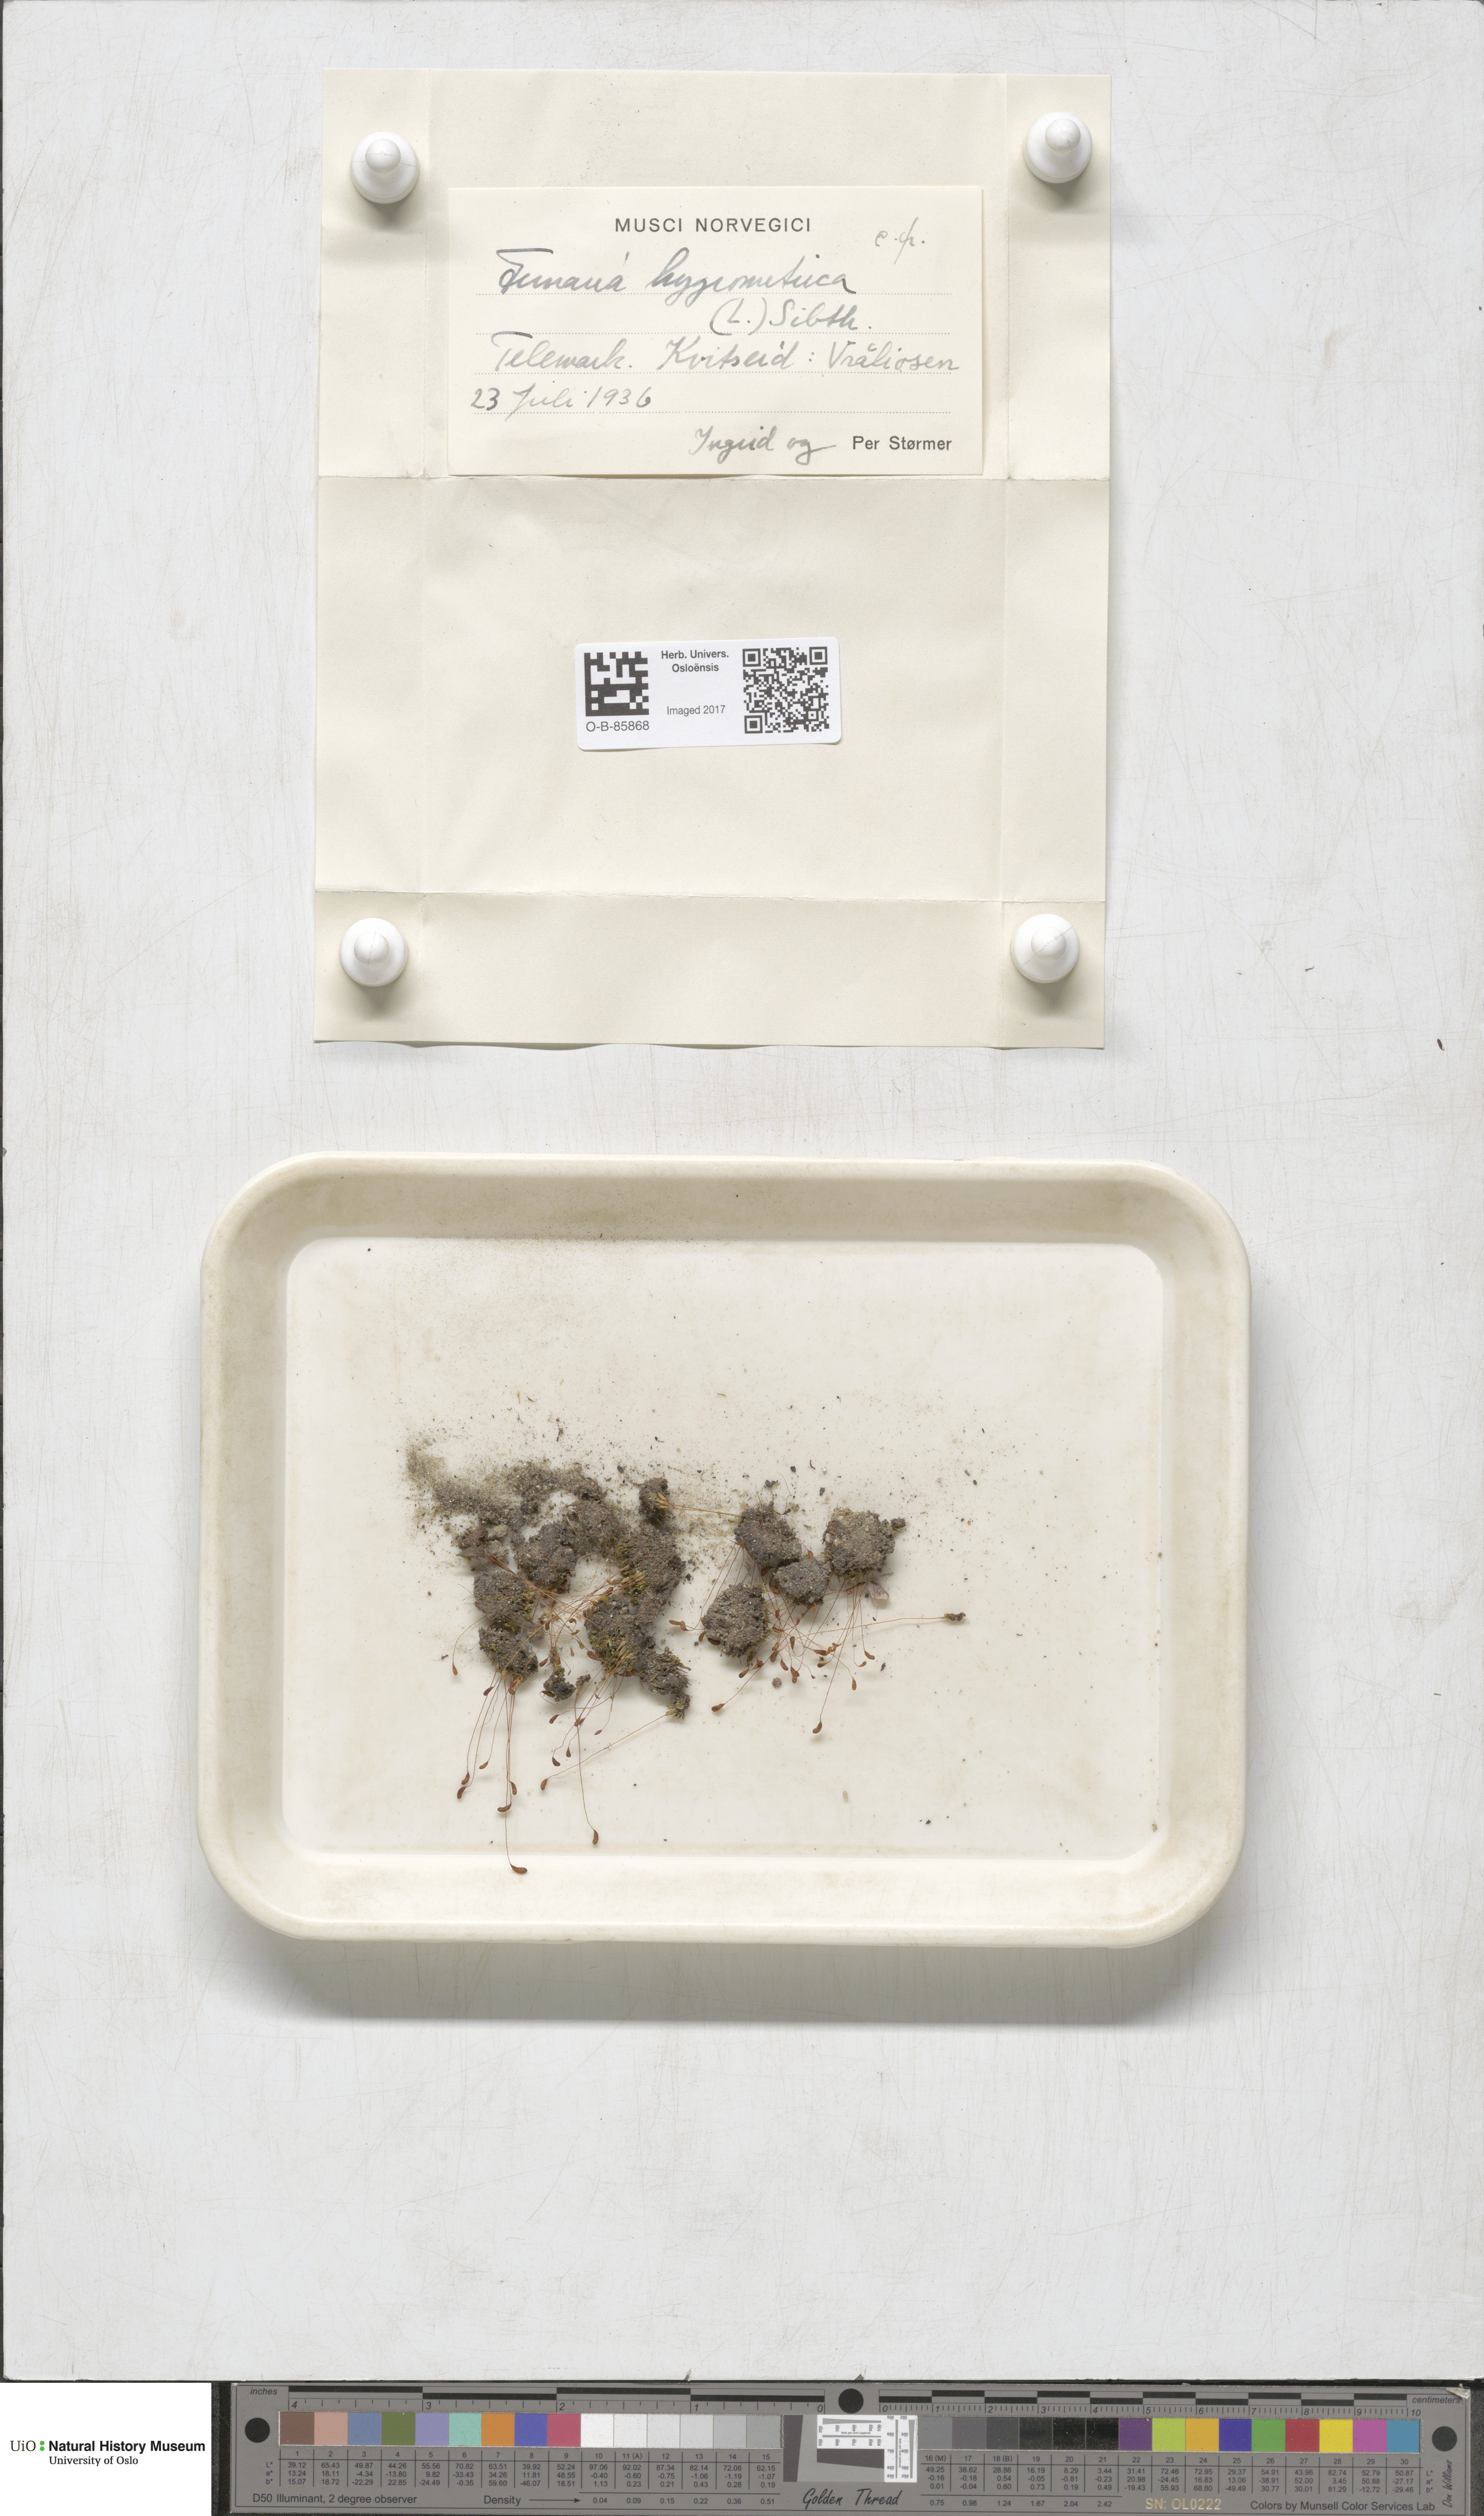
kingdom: Plantae
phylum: Bryophyta
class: Bryopsida
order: Funariales
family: Funariaceae
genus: Funaria
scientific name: Funaria hygrometrica
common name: Common cord moss
